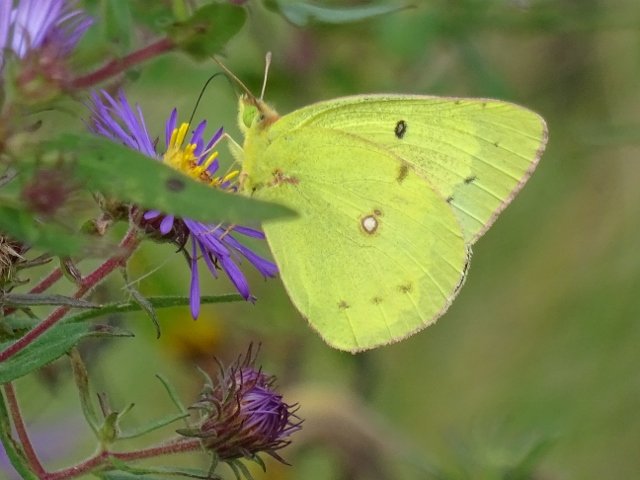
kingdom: Animalia
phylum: Arthropoda
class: Insecta
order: Lepidoptera
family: Pieridae
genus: Colias
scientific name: Colias philodice
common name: Clouded Sulphur
